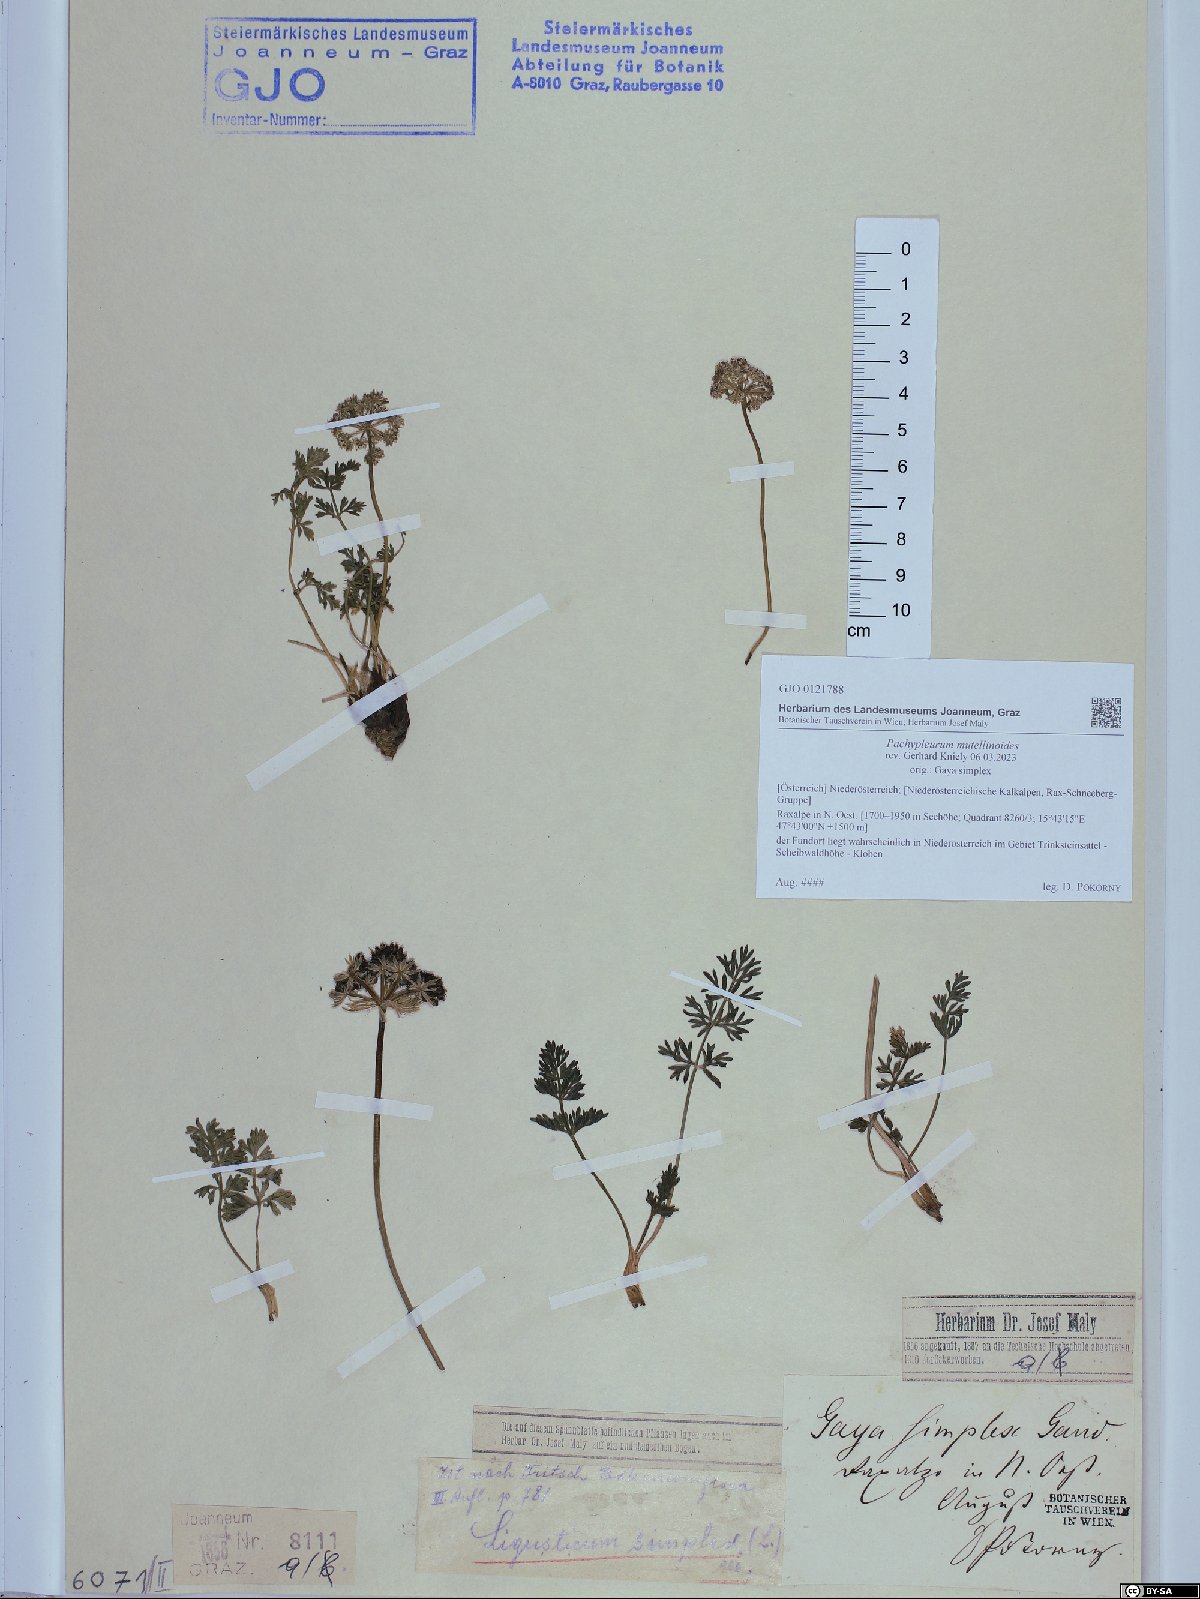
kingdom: Plantae
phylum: Tracheophyta
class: Magnoliopsida
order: Apiales
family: Apiaceae
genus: Pachypleurum
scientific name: Pachypleurum mutellinoides
